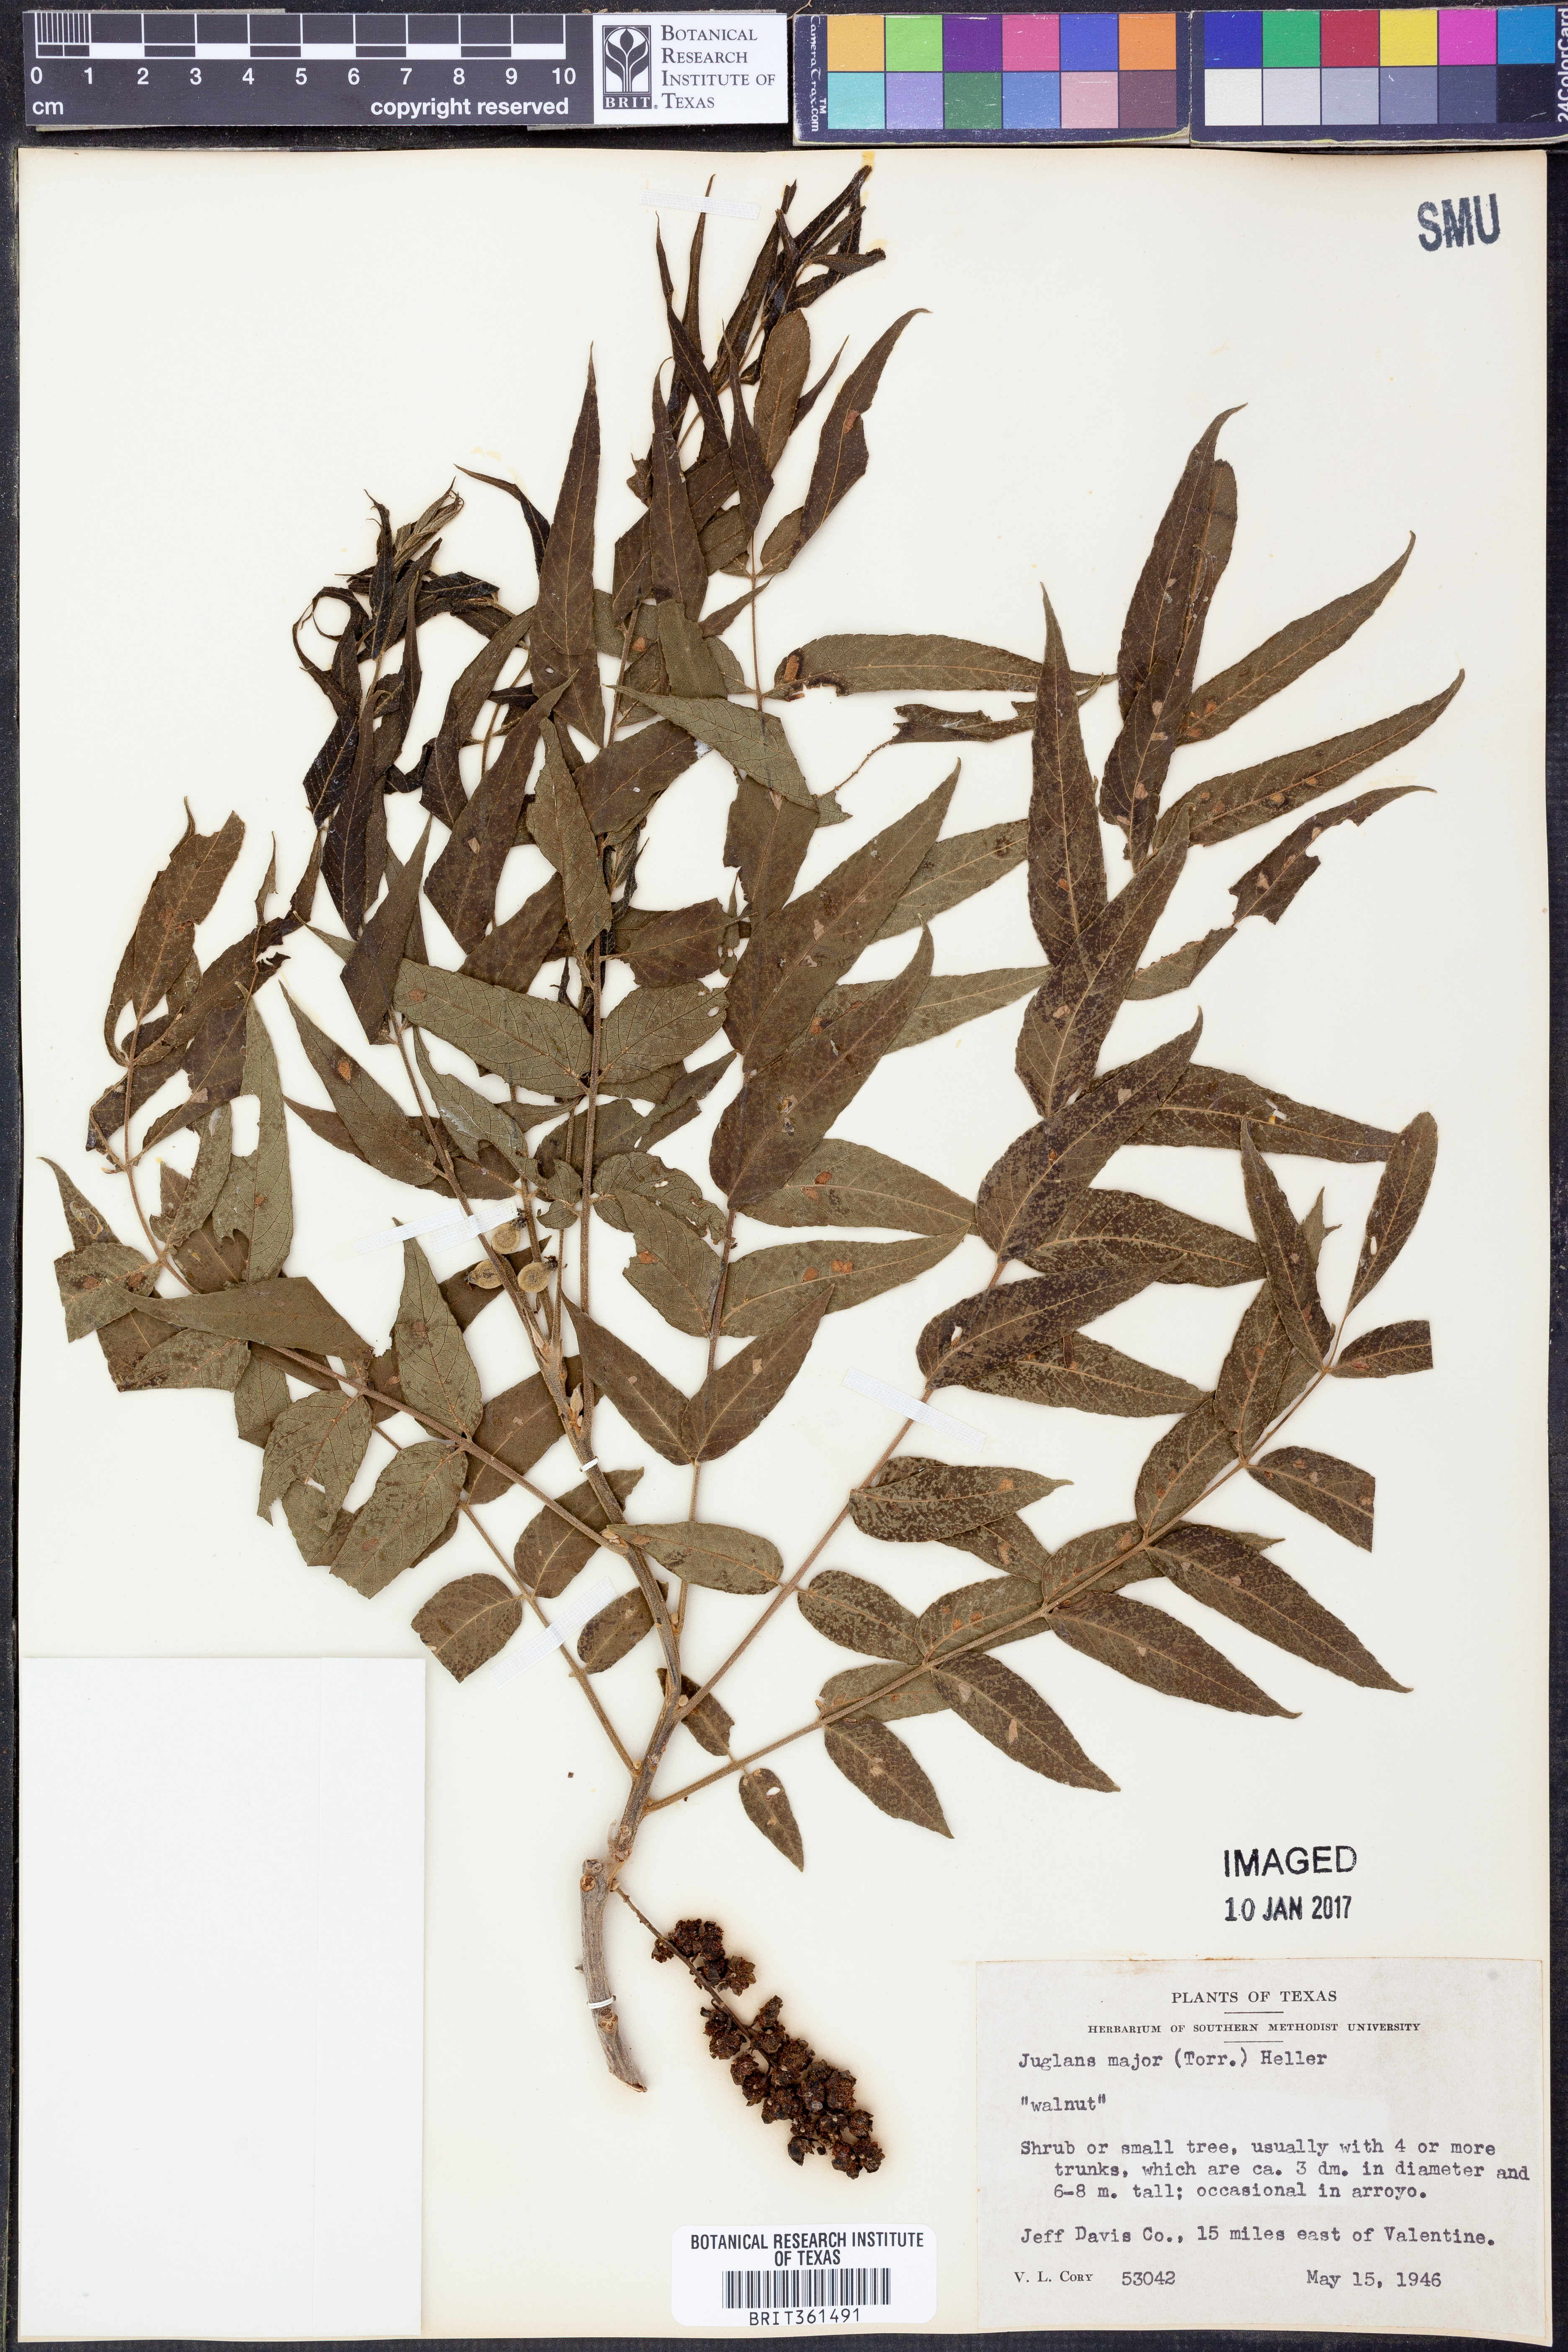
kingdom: Plantae
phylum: Tracheophyta
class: Magnoliopsida
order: Fagales
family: Juglandaceae
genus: Juglans
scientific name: Juglans major
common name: Arizona walnut
